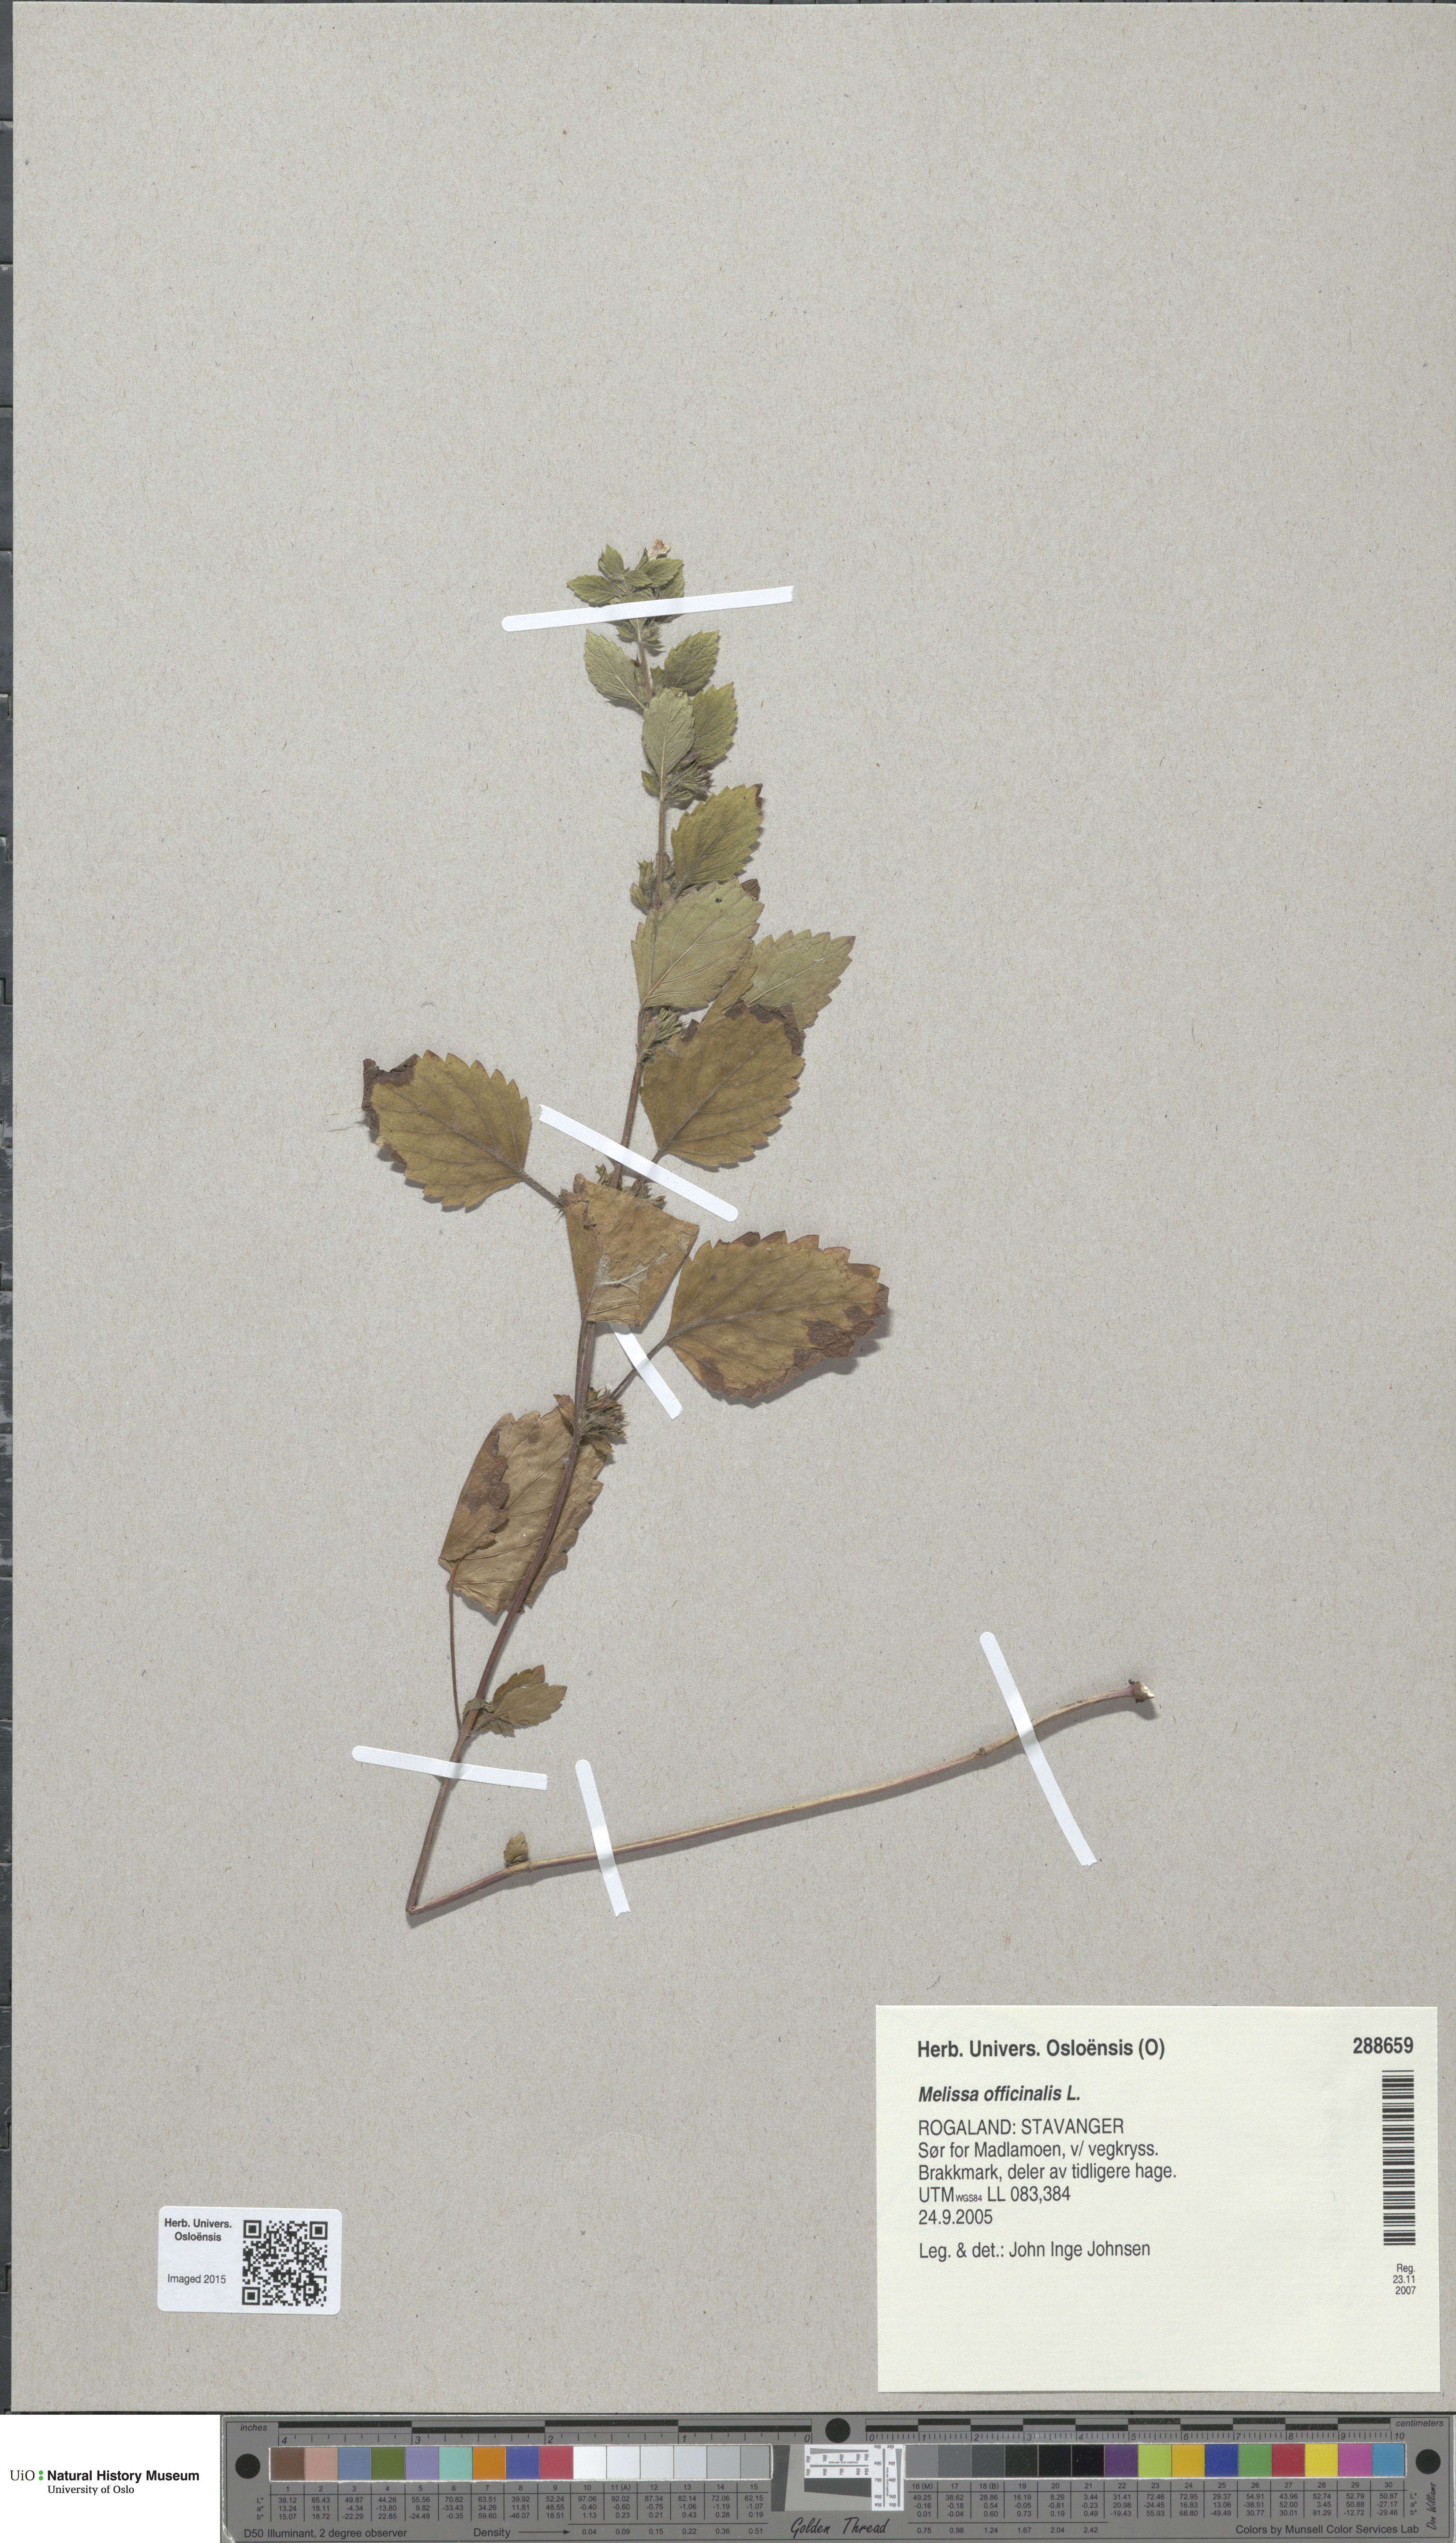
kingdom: Plantae
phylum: Tracheophyta
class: Magnoliopsida
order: Lamiales
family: Lamiaceae
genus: Melissa
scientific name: Melissa officinalis
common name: Balm
